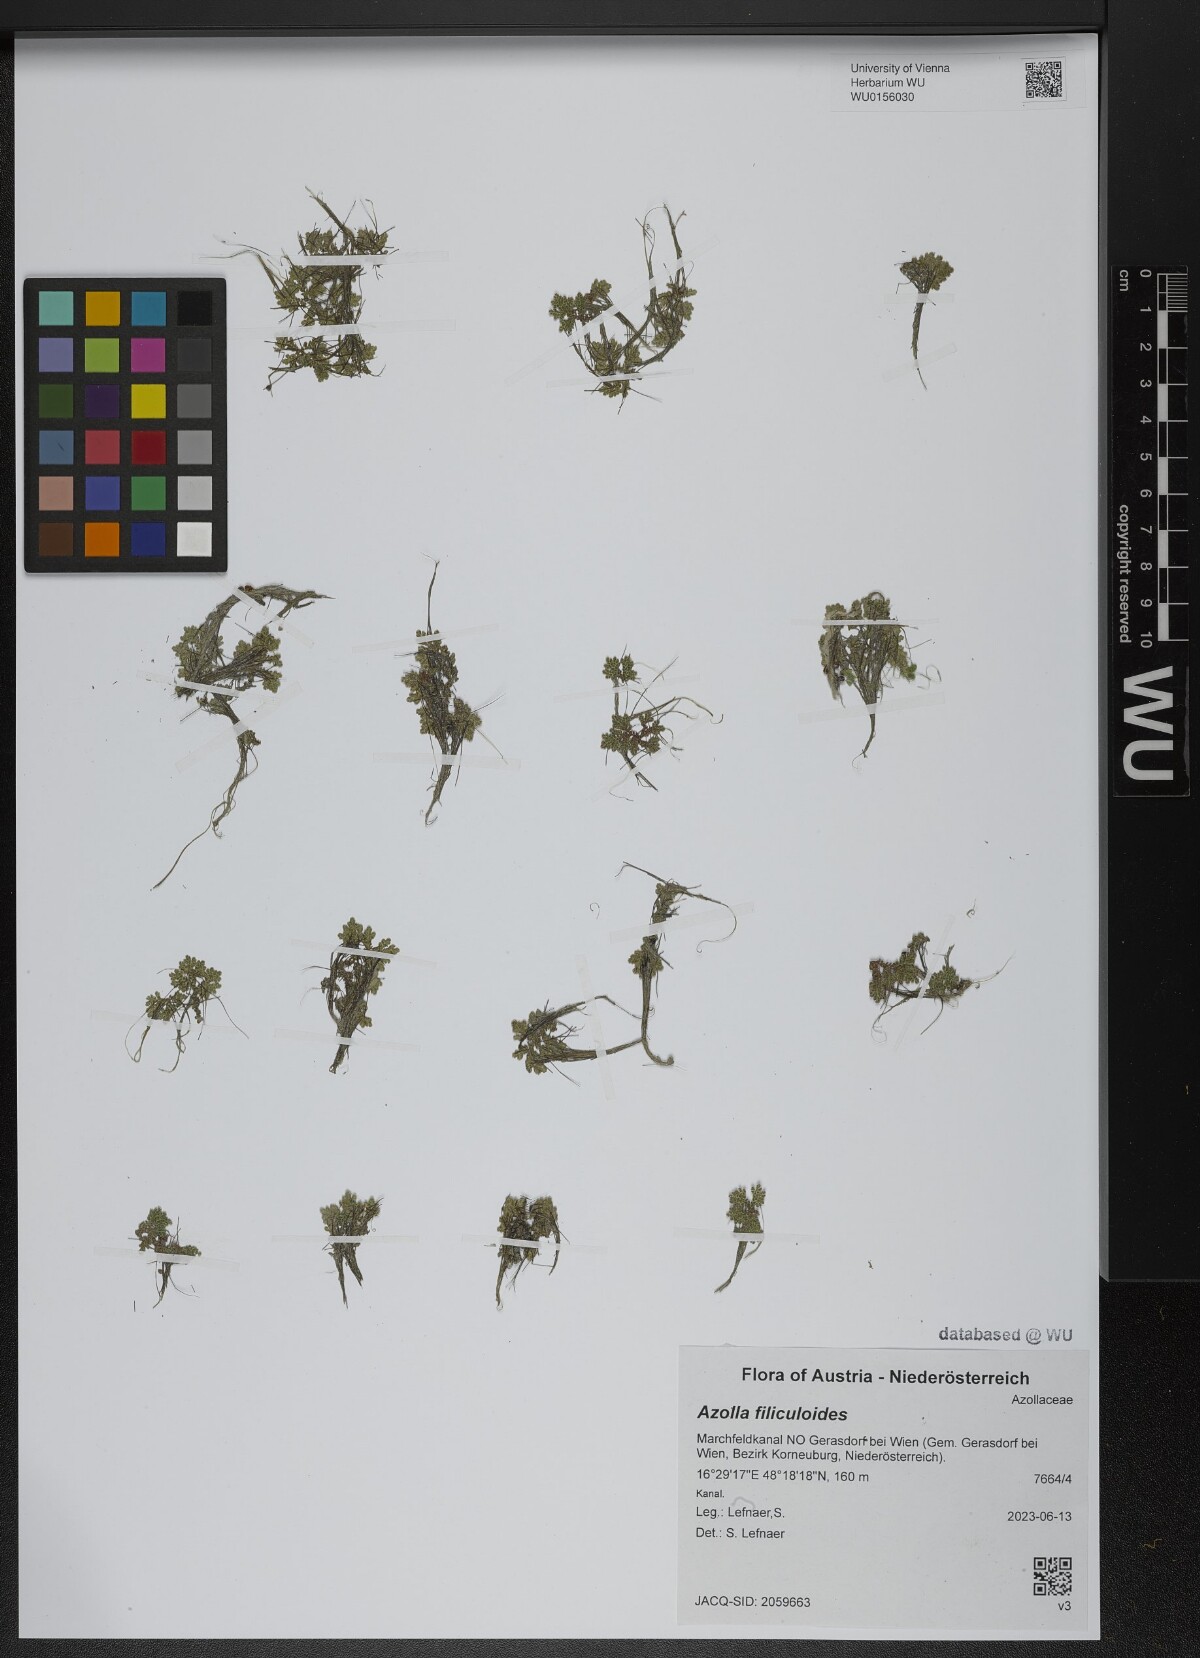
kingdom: Plantae
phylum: Tracheophyta
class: Polypodiopsida
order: Salviniales
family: Salviniaceae
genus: Azolla
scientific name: Azolla filiculoides
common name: Water fern
